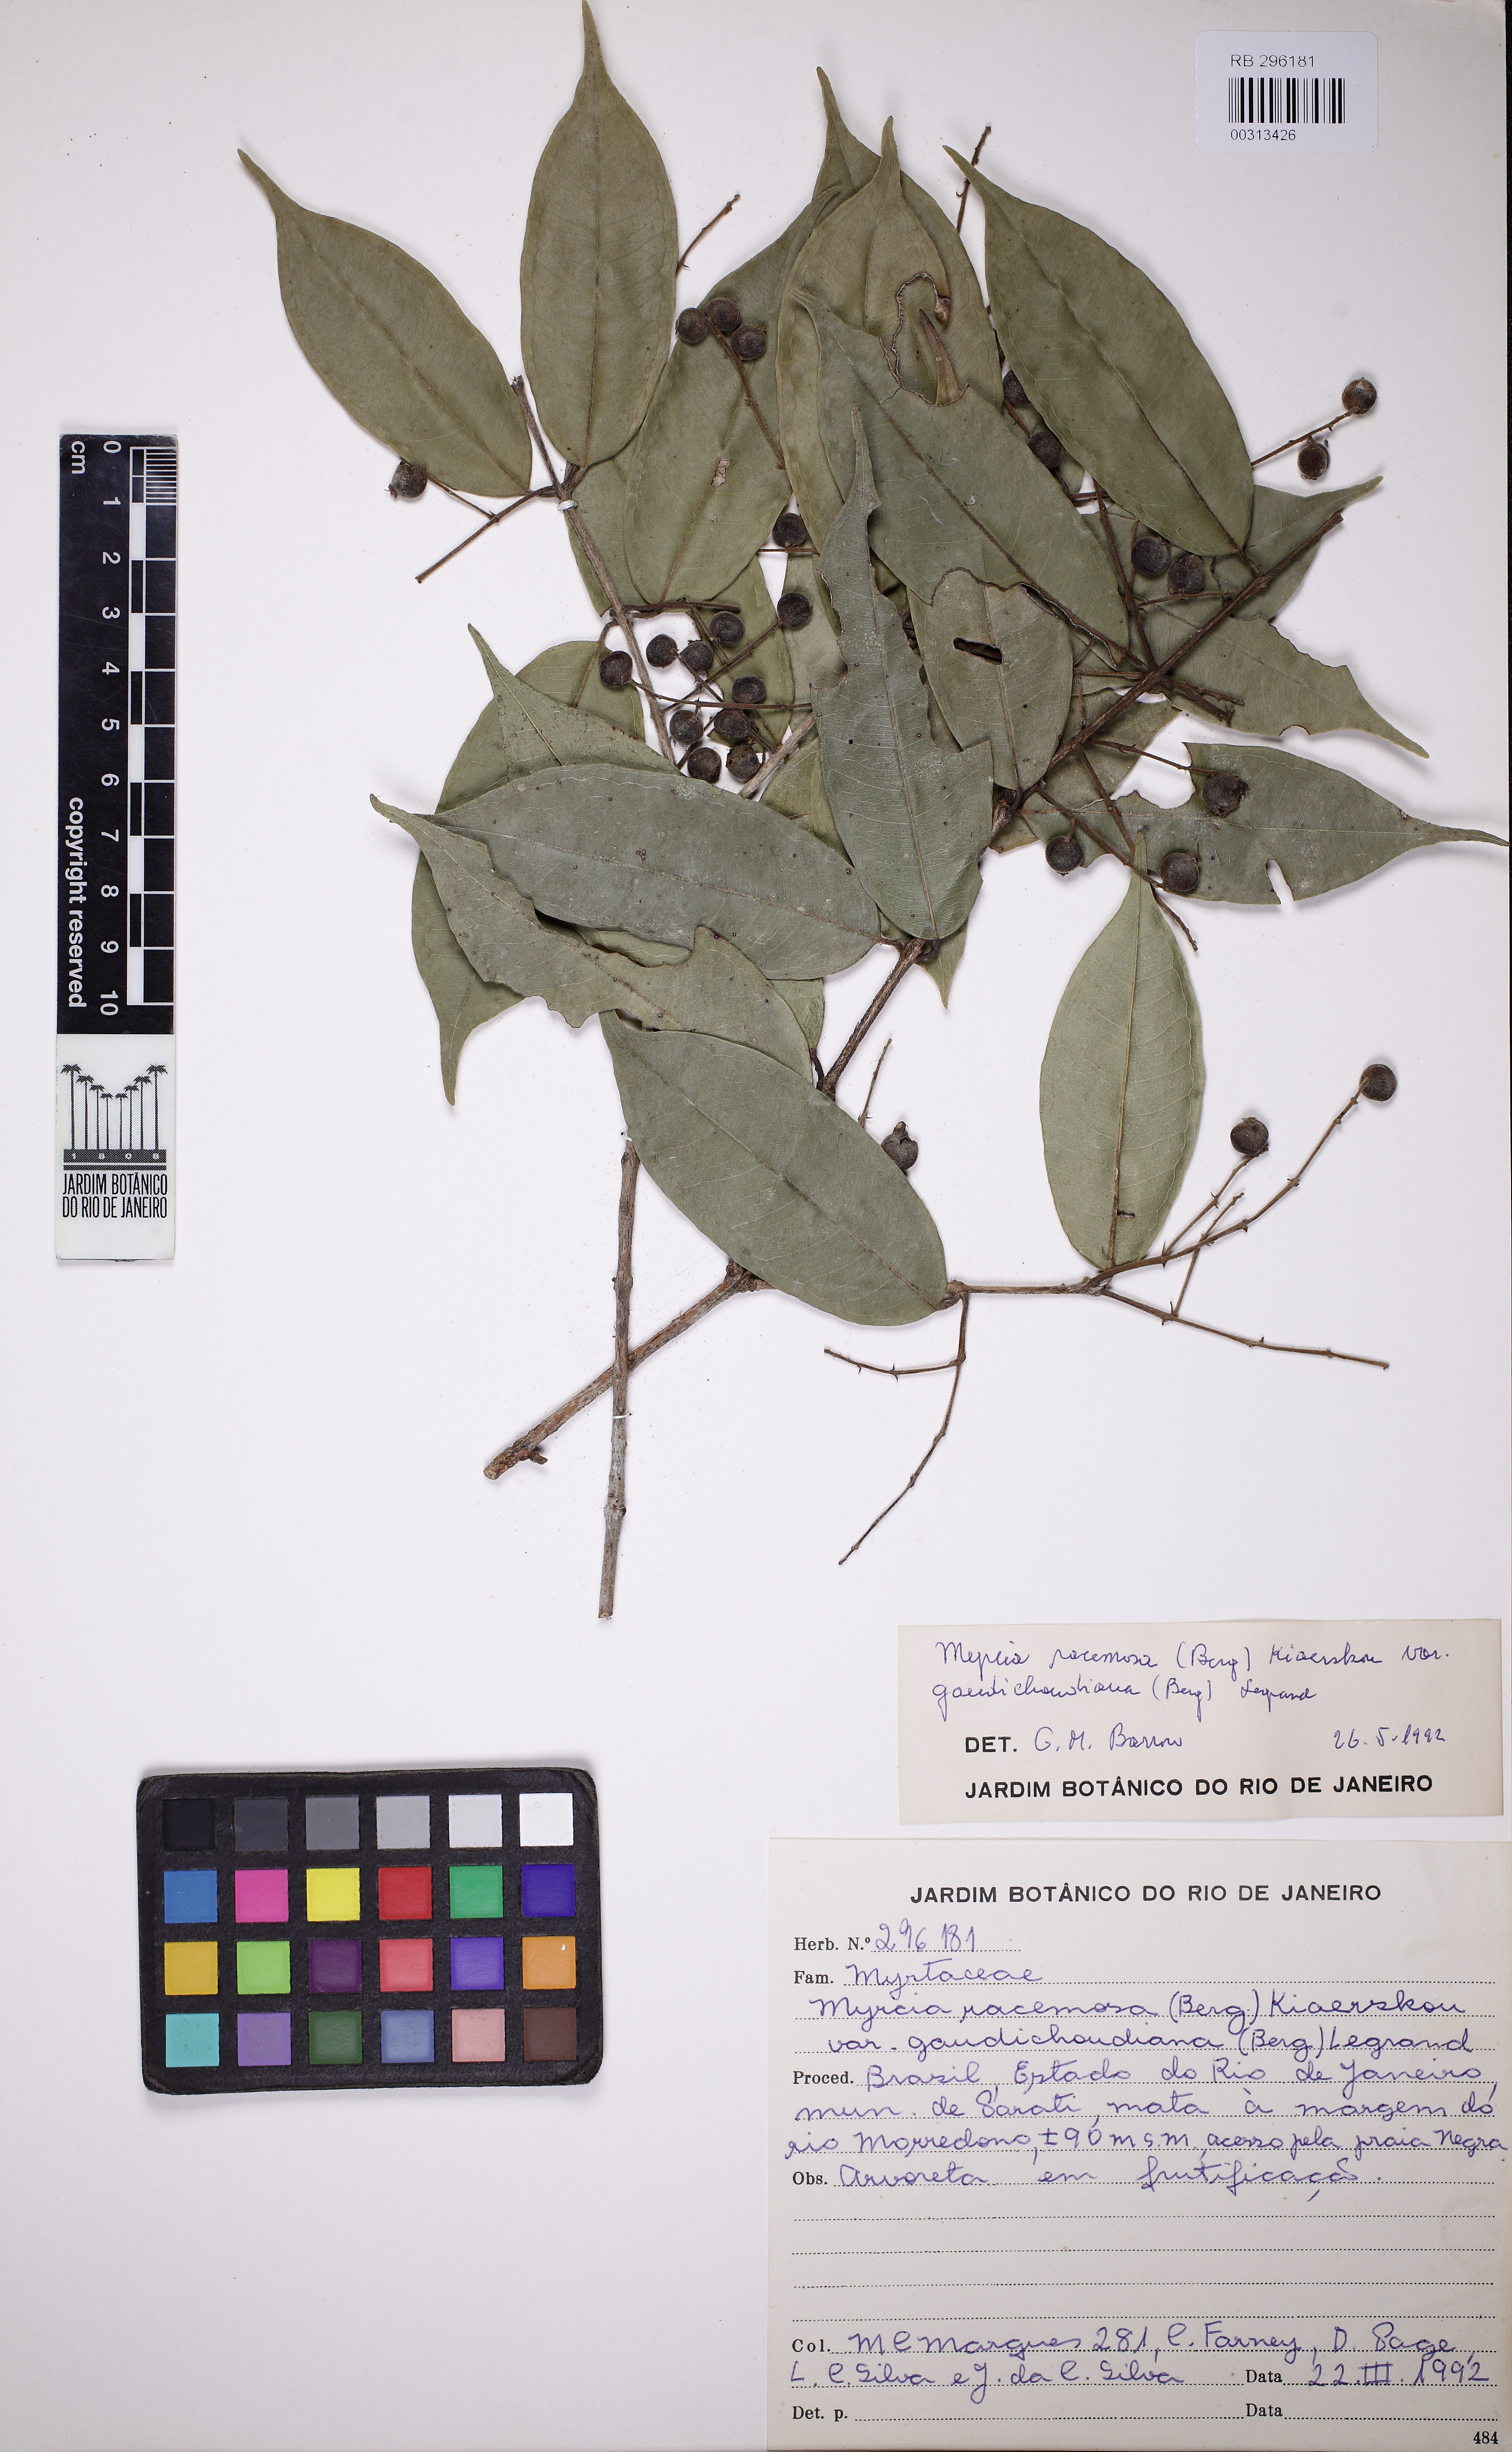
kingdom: Plantae
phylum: Tracheophyta
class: Magnoliopsida
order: Myrtales
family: Myrtaceae
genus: Myrcia
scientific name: Myrcia racemosa
